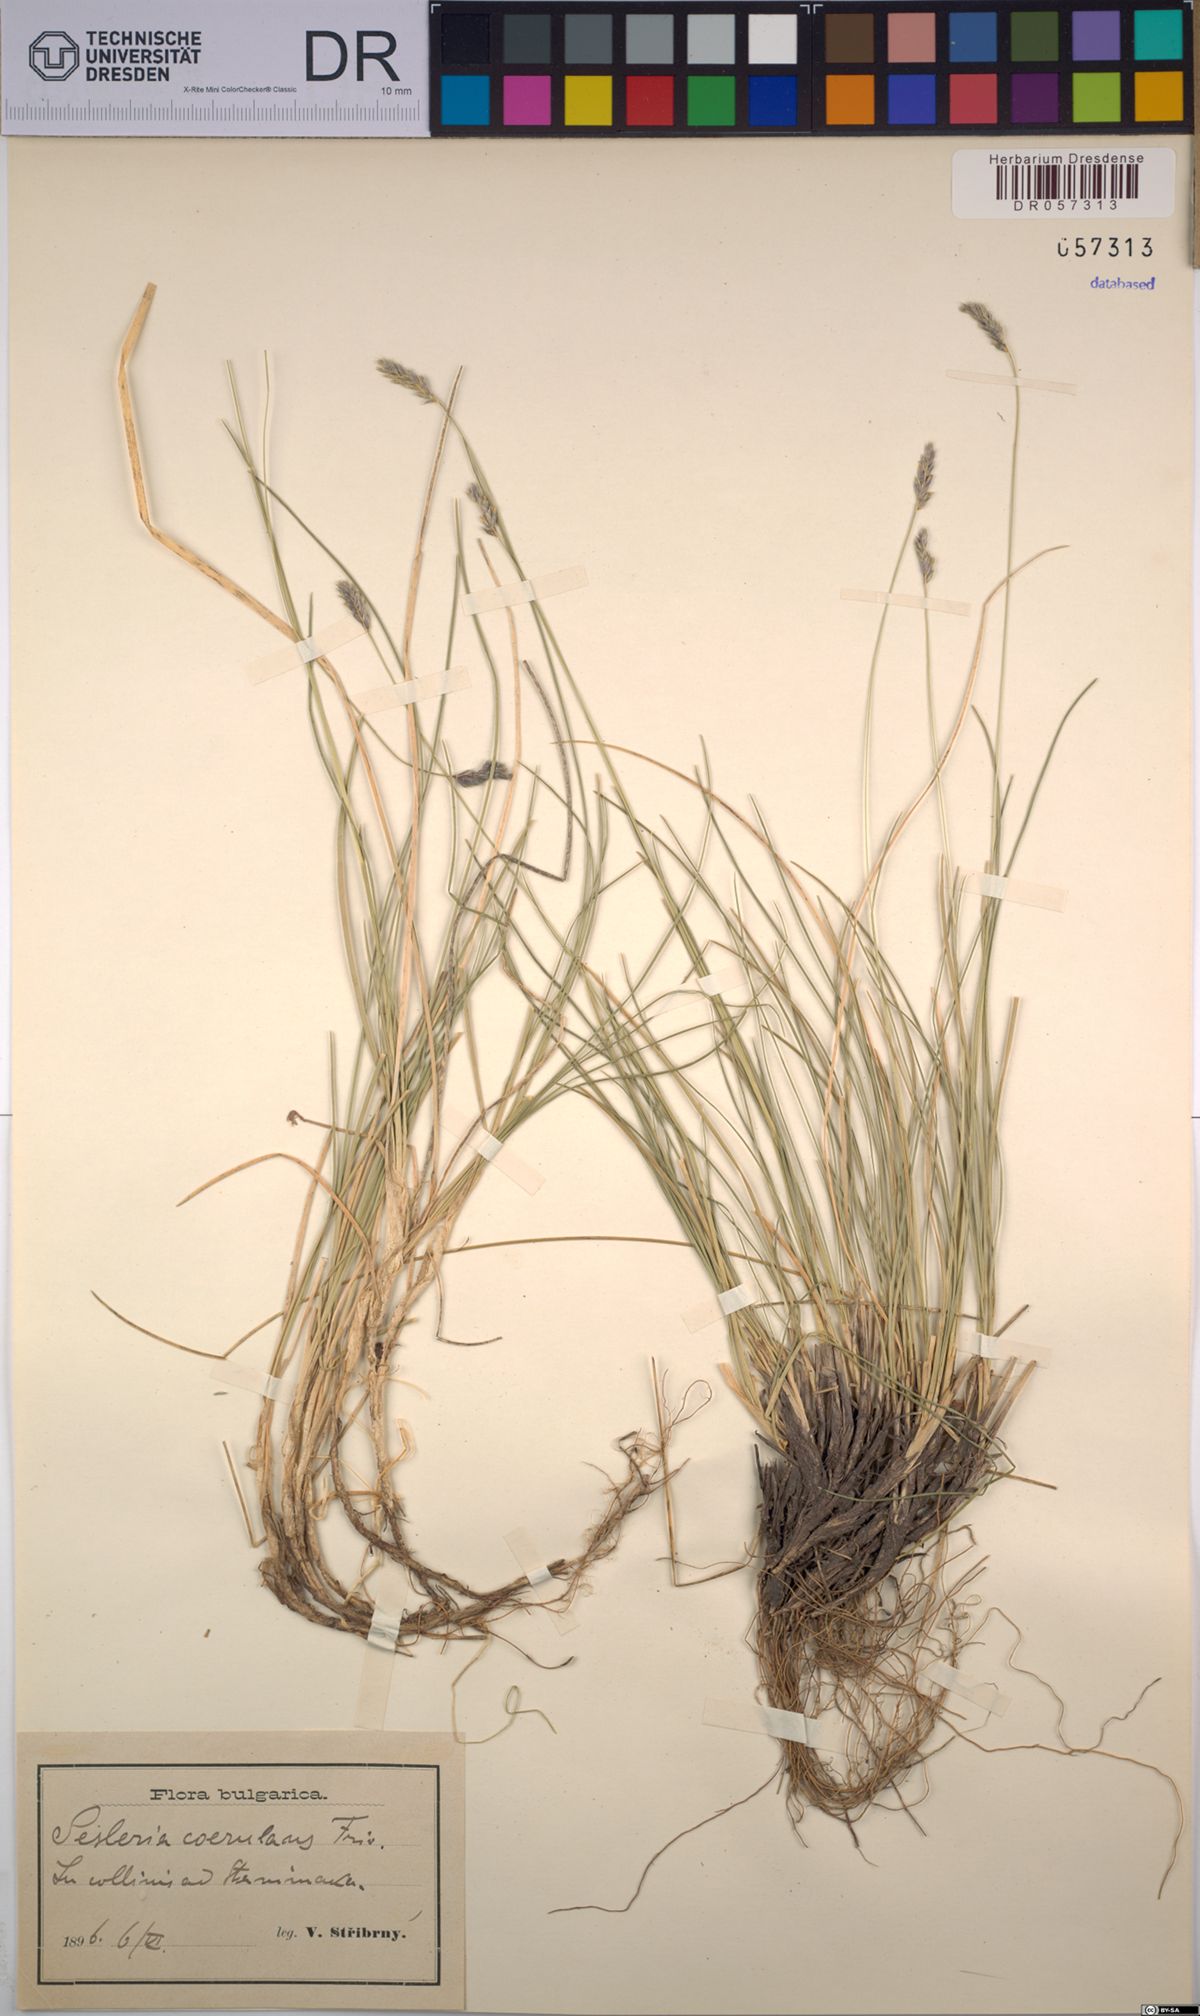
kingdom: Plantae
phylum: Tracheophyta
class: Liliopsida
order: Poales
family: Poaceae
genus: Sesleria
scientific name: Sesleria coerulans
